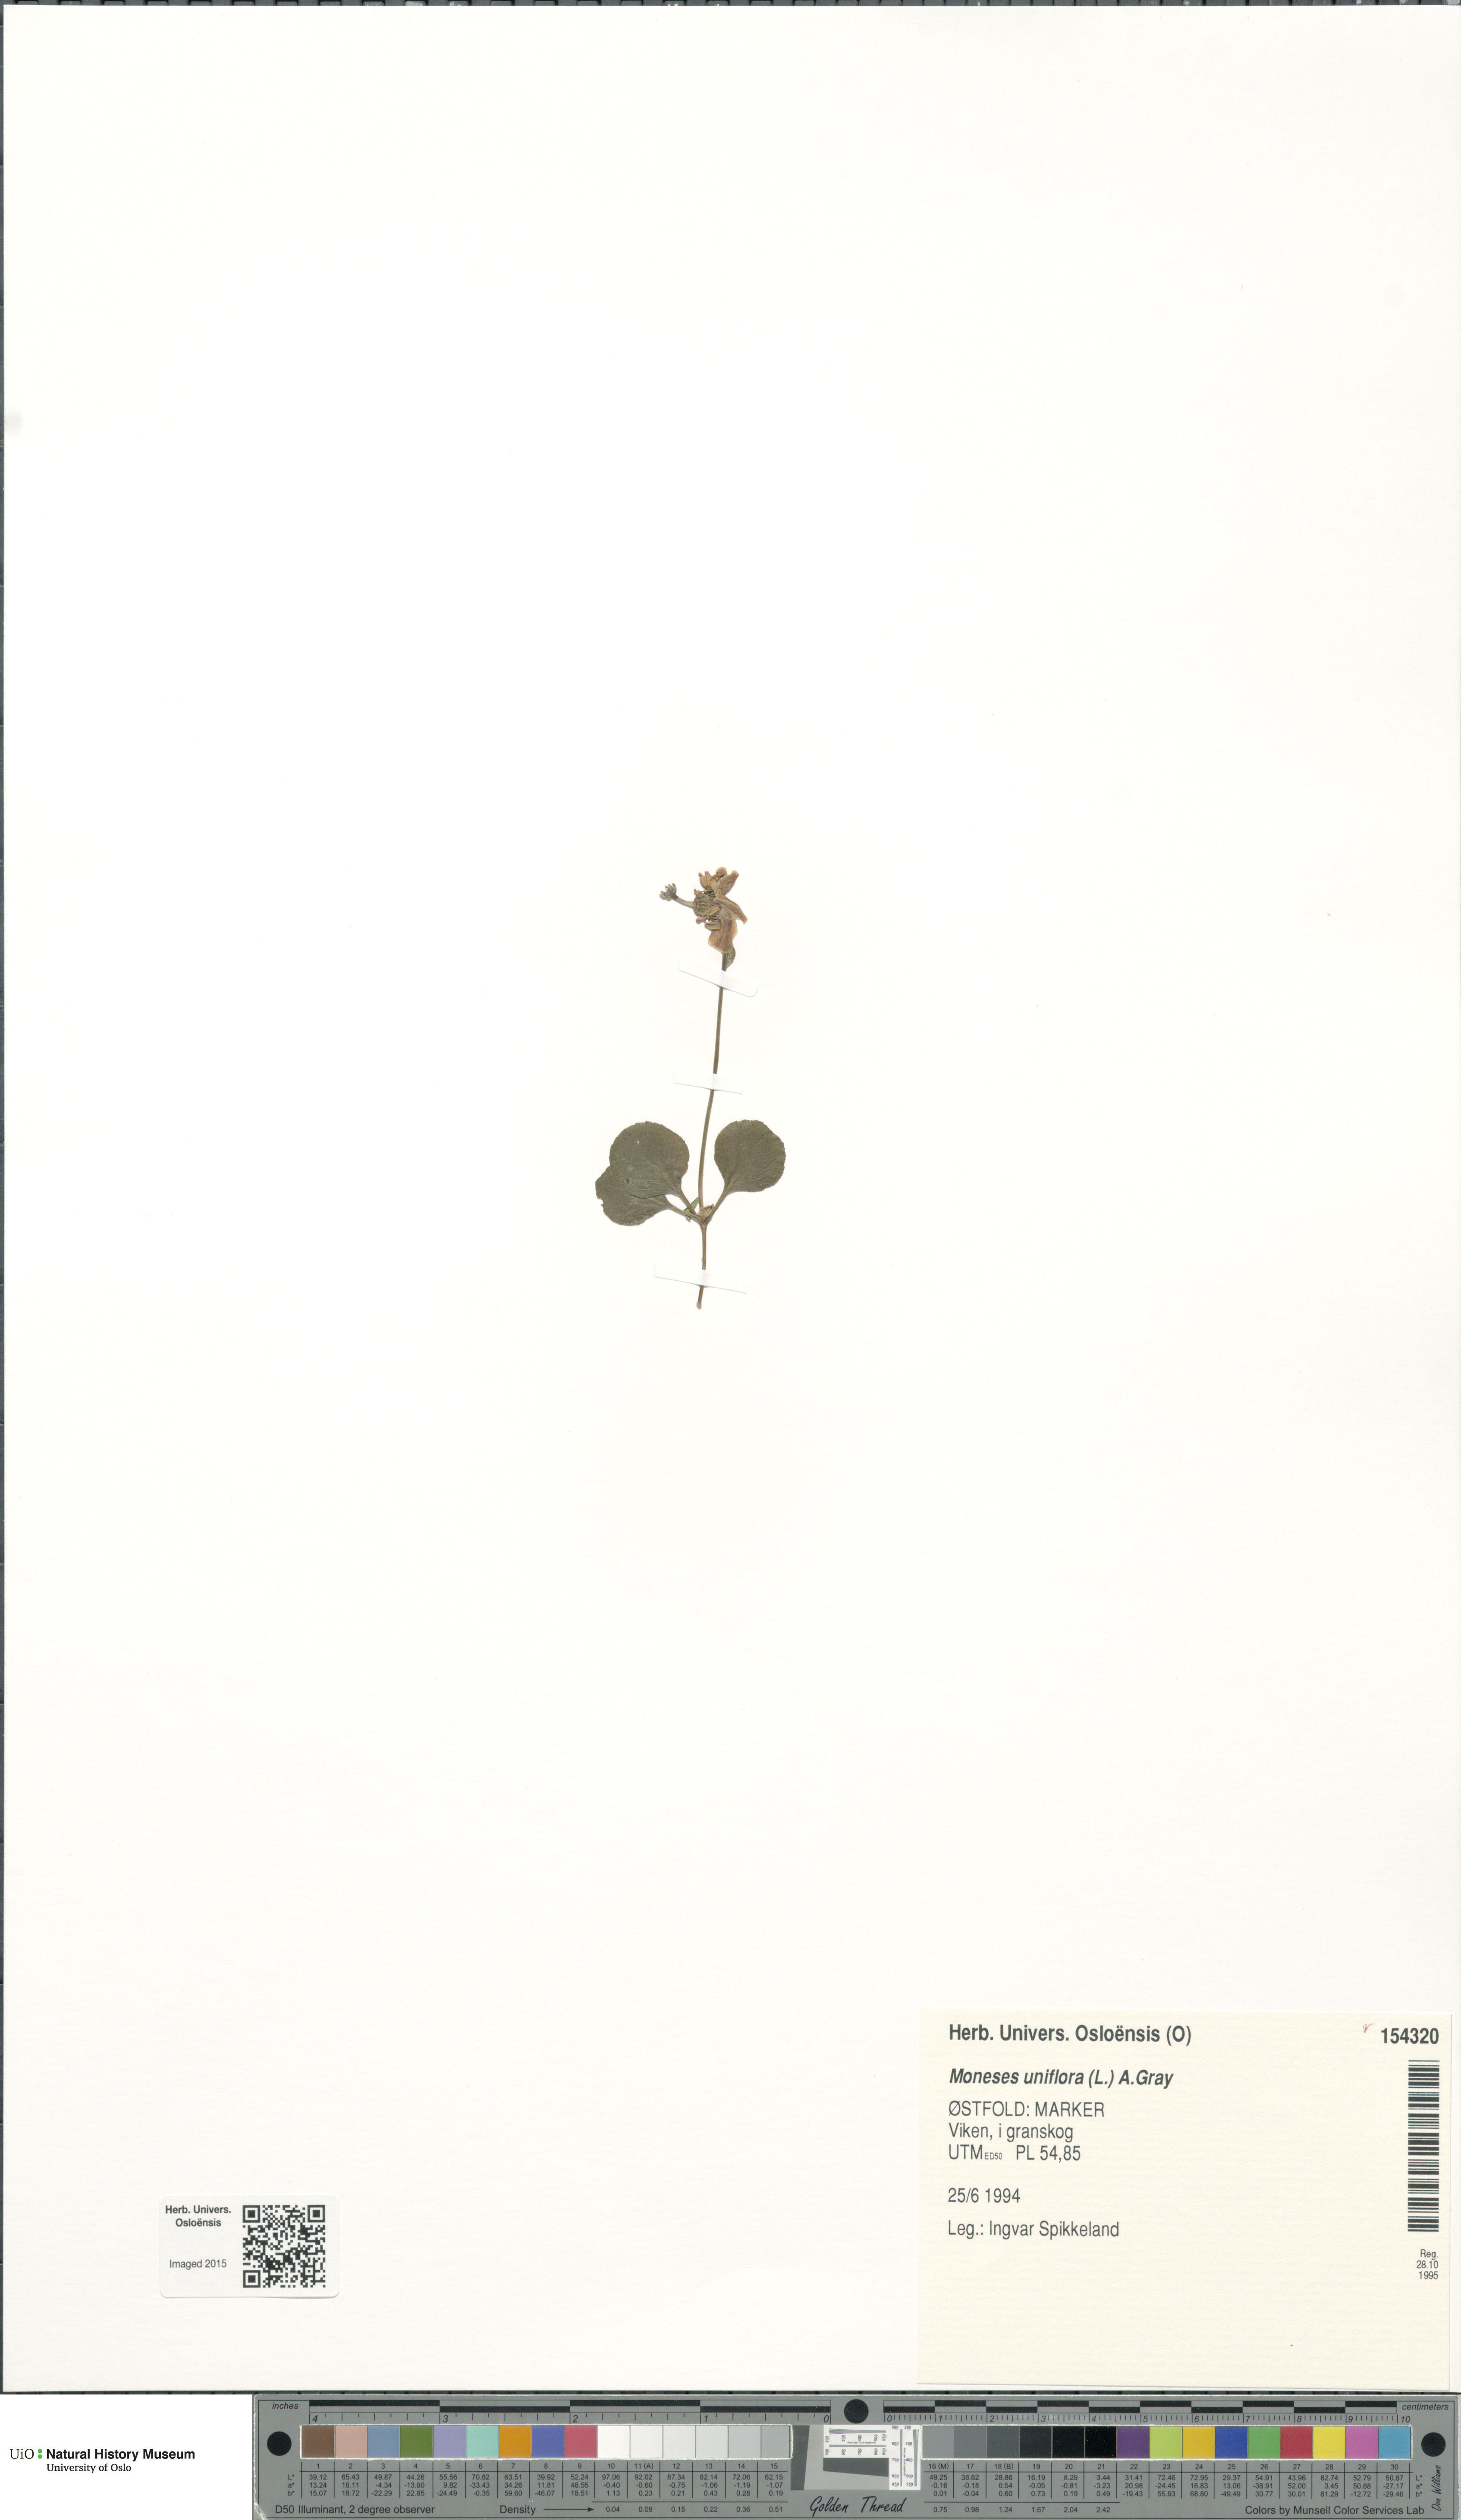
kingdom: Plantae
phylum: Tracheophyta
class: Magnoliopsida
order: Ericales
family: Ericaceae
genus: Moneses
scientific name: Moneses uniflora
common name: One-flowered wintergreen
